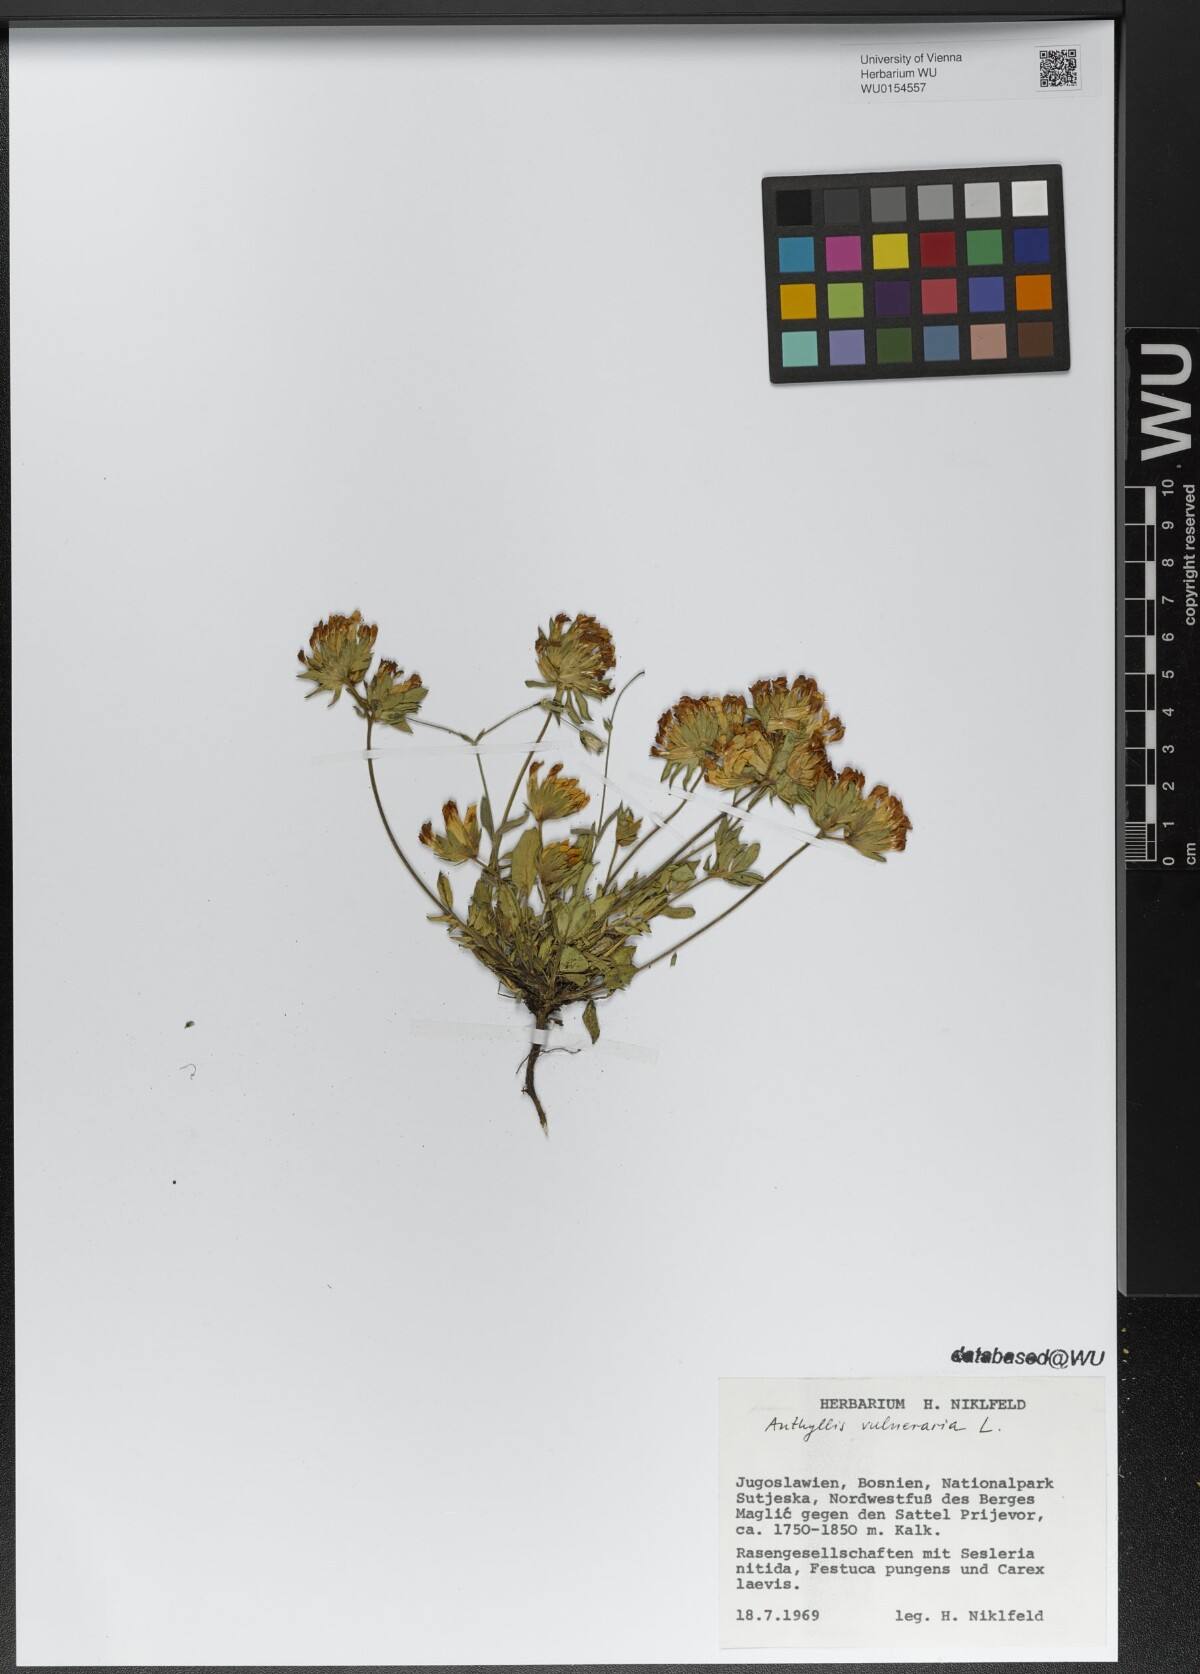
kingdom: Plantae
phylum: Tracheophyta
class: Magnoliopsida
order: Fabales
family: Fabaceae
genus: Anthyllis
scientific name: Anthyllis vulneraria
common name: Kidney vetch
